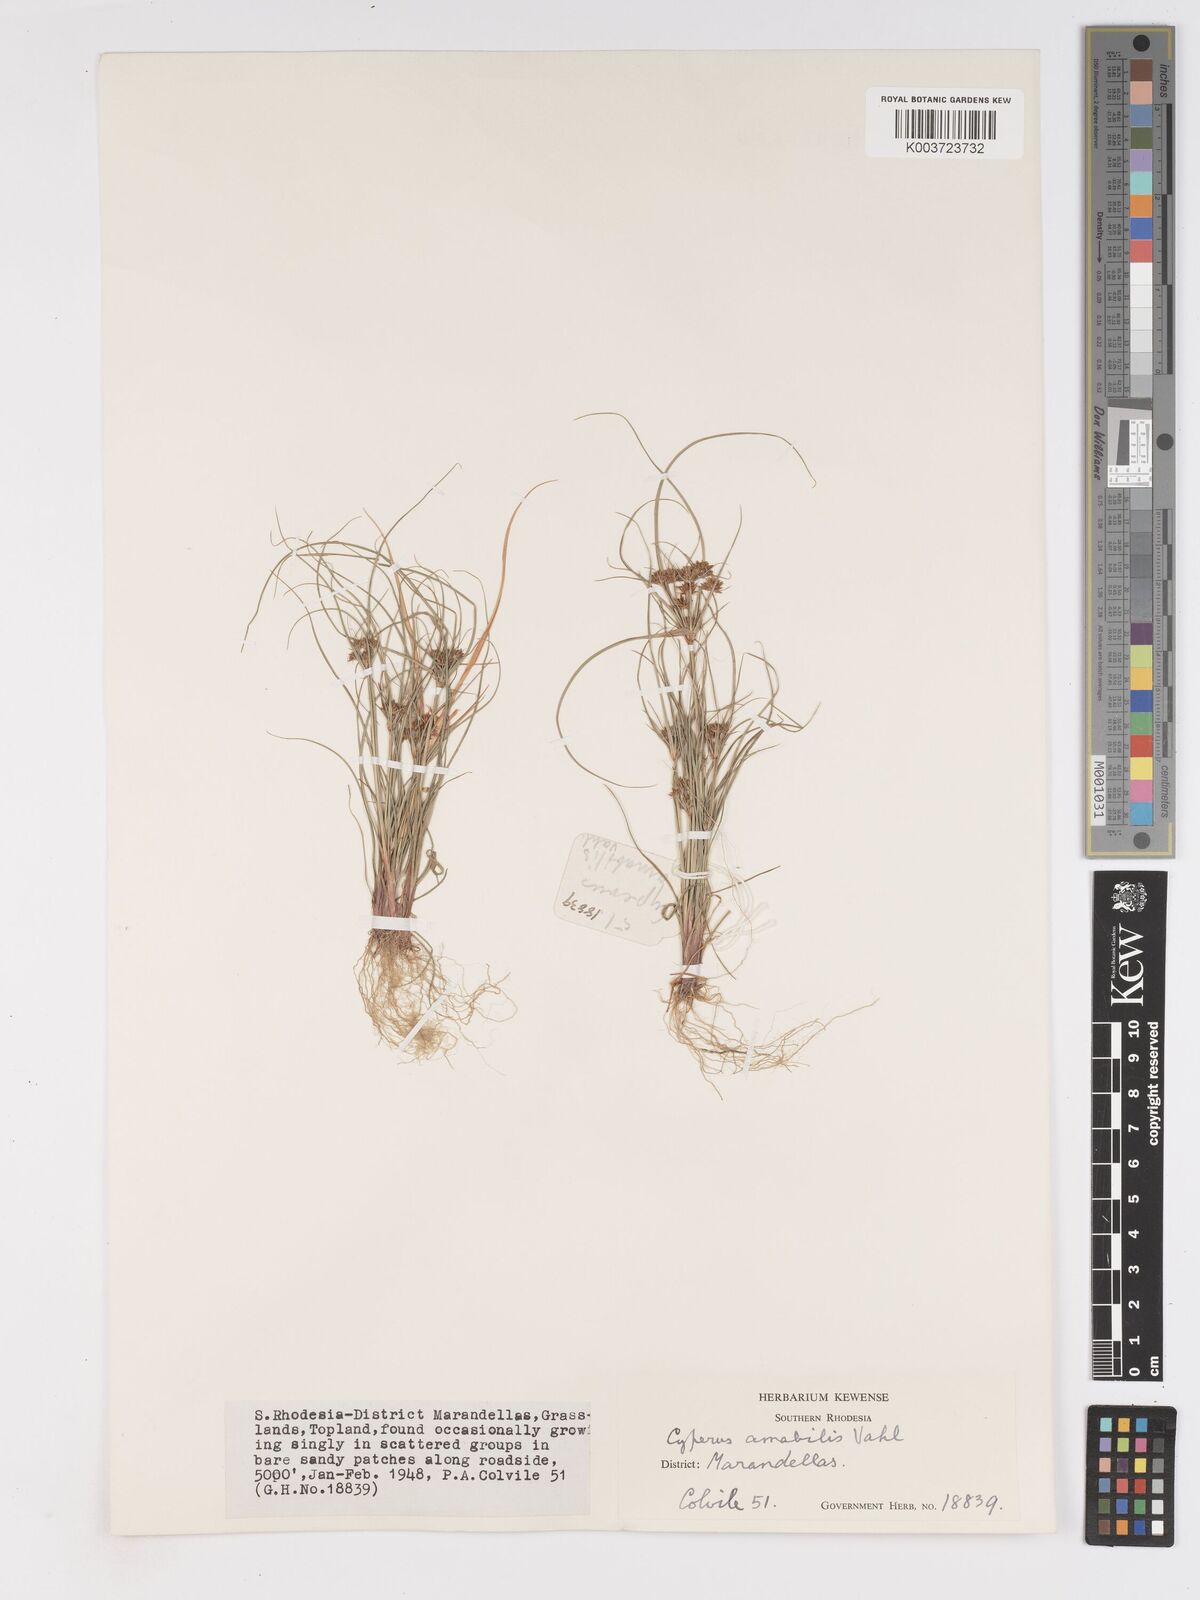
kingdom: Plantae
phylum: Tracheophyta
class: Liliopsida
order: Poales
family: Cyperaceae
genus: Cyperus
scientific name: Cyperus amabilis
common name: Foothill flat sedge
